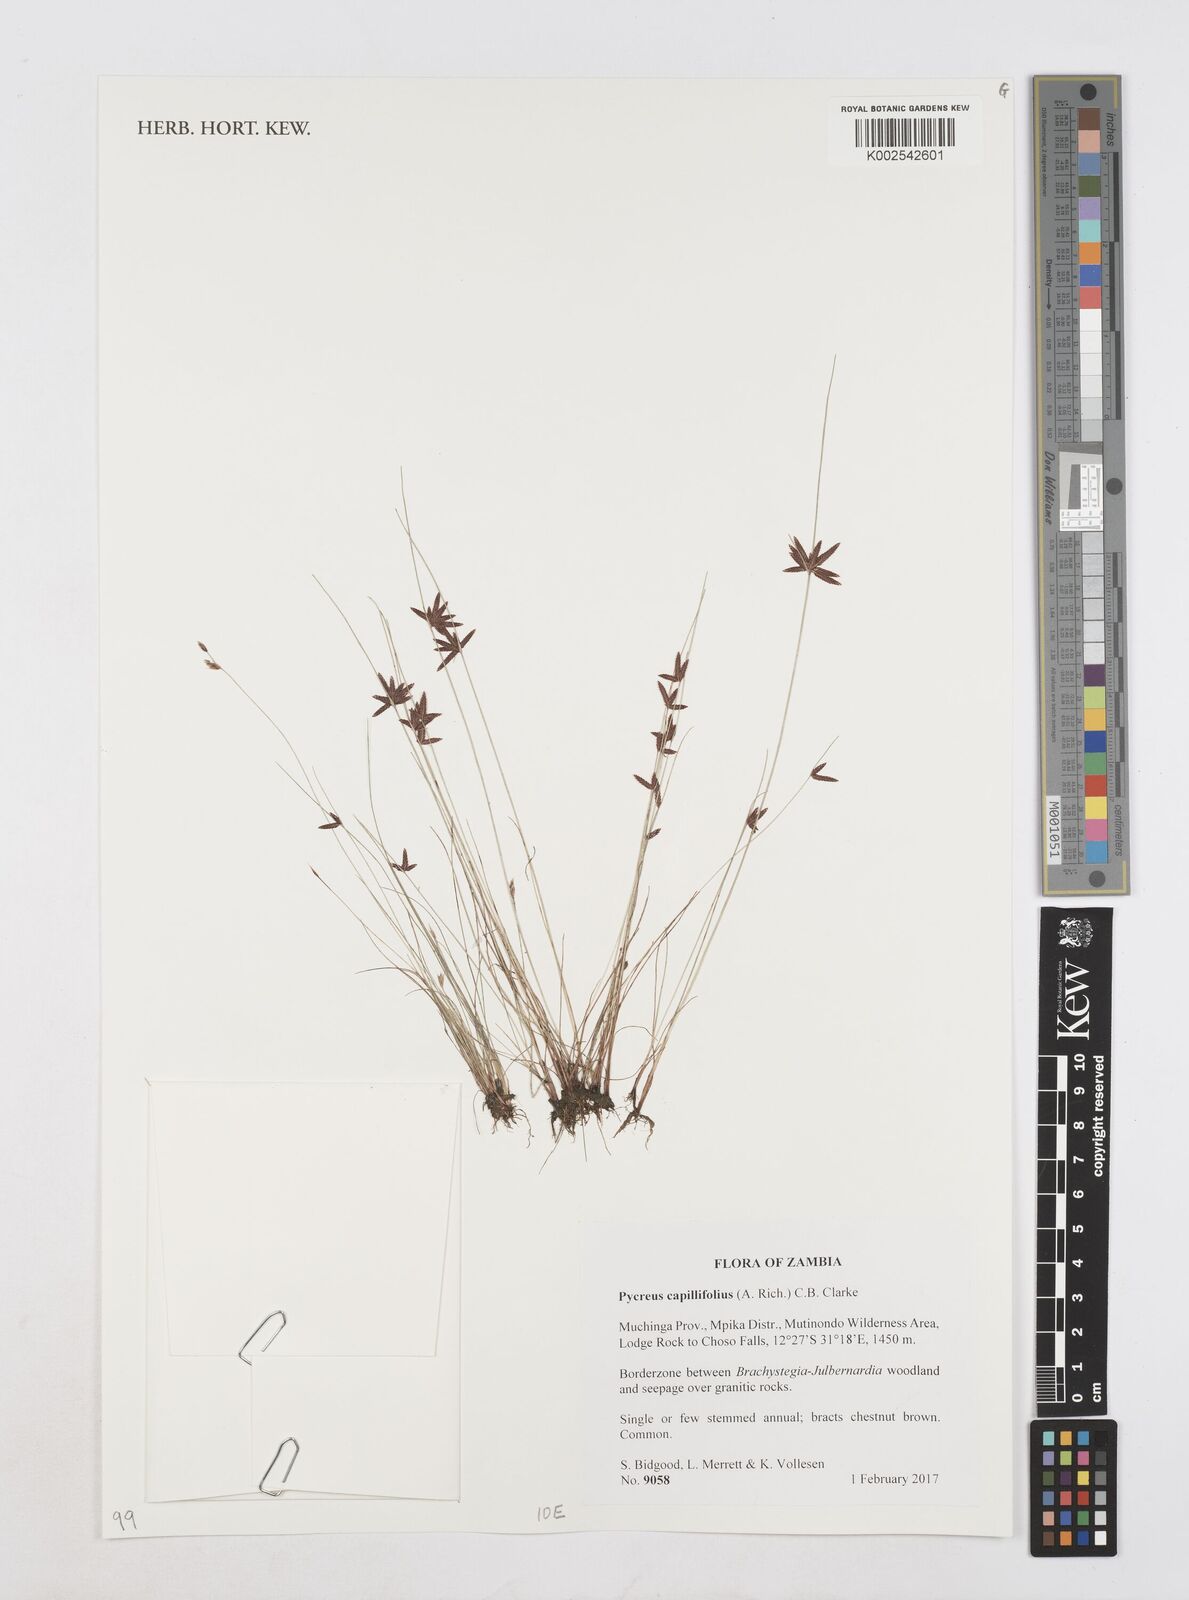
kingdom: Plantae
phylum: Tracheophyta
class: Liliopsida
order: Poales
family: Cyperaceae
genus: Cyperus
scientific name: Cyperus capillifolius
